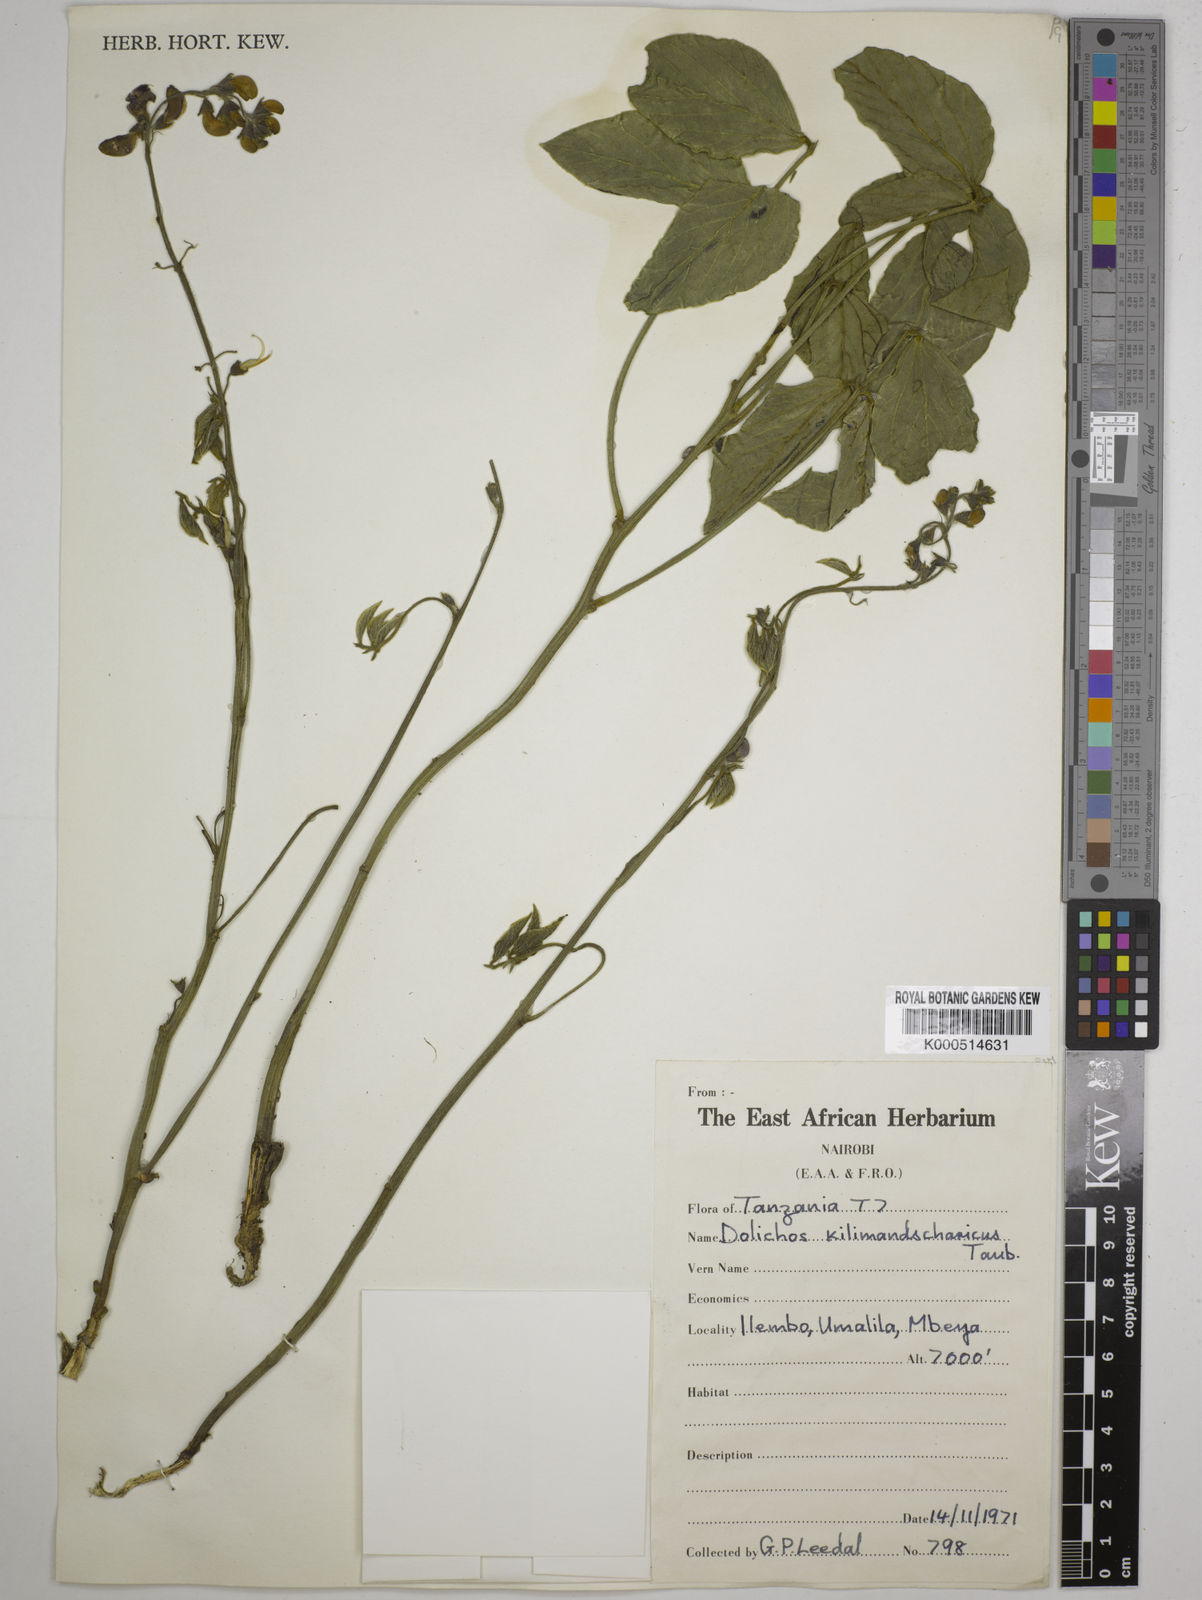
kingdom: Plantae
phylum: Tracheophyta
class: Magnoliopsida
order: Fabales
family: Fabaceae
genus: Dolichos
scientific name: Dolichos kilimandscharicus
